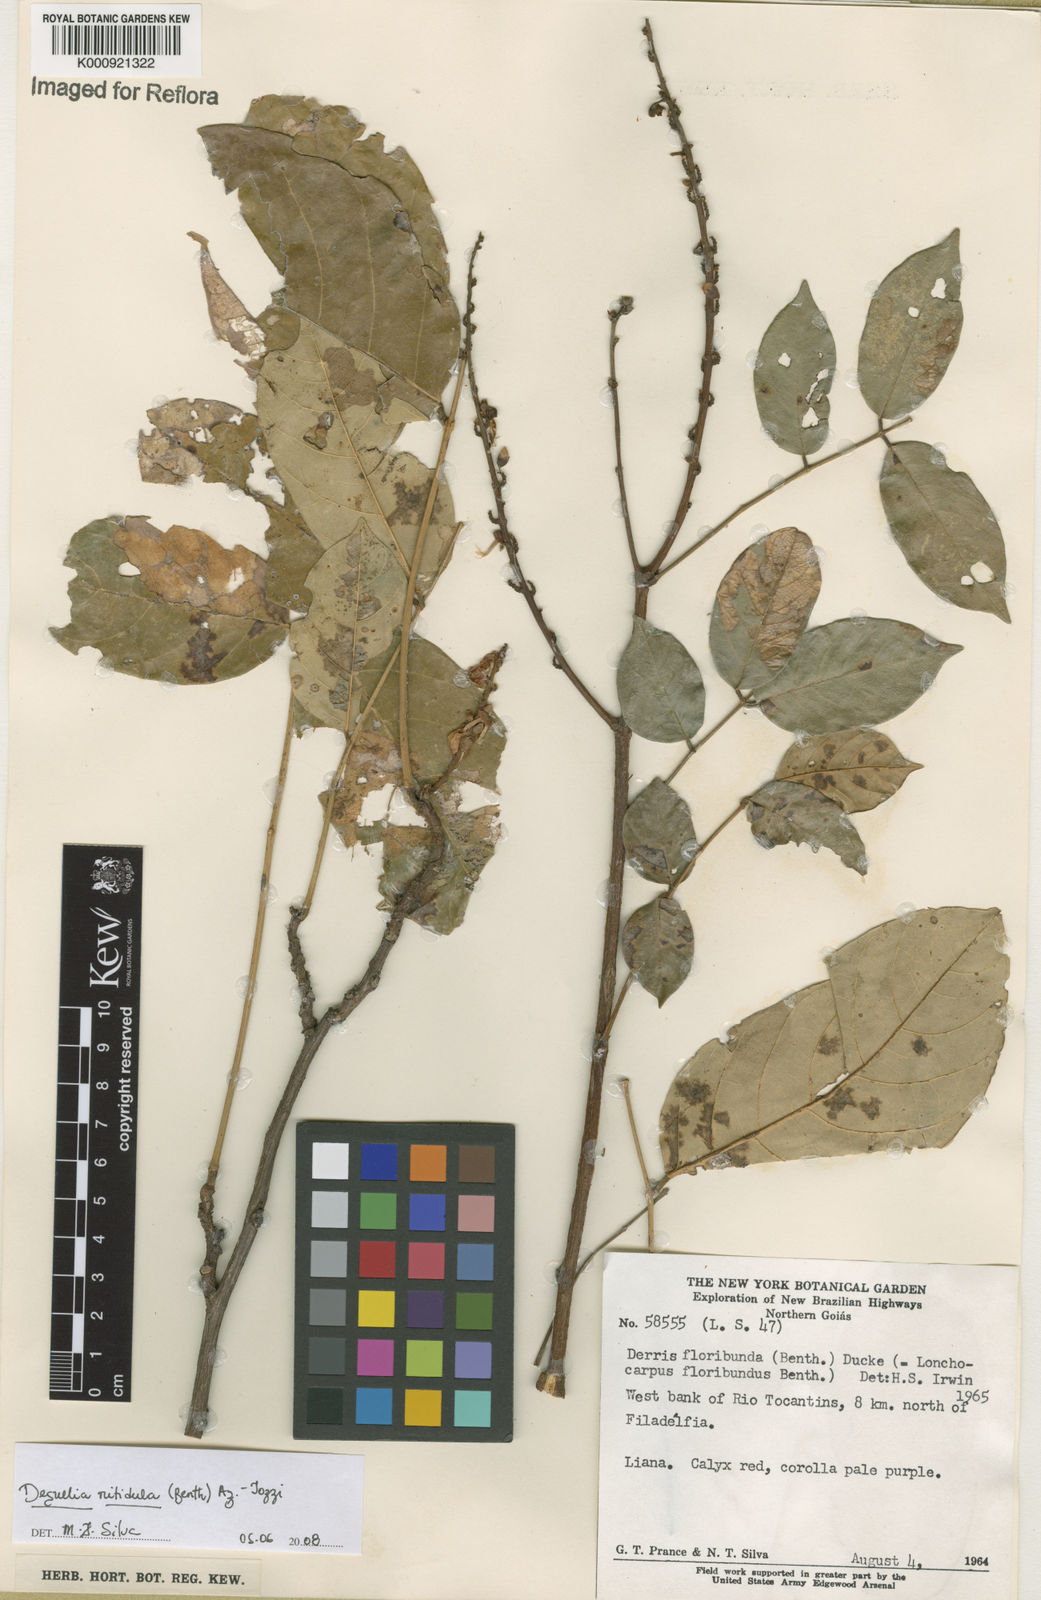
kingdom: Plantae
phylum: Tracheophyta
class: Magnoliopsida
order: Fabales
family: Fabaceae
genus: Deguelia
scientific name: Deguelia nitidula
